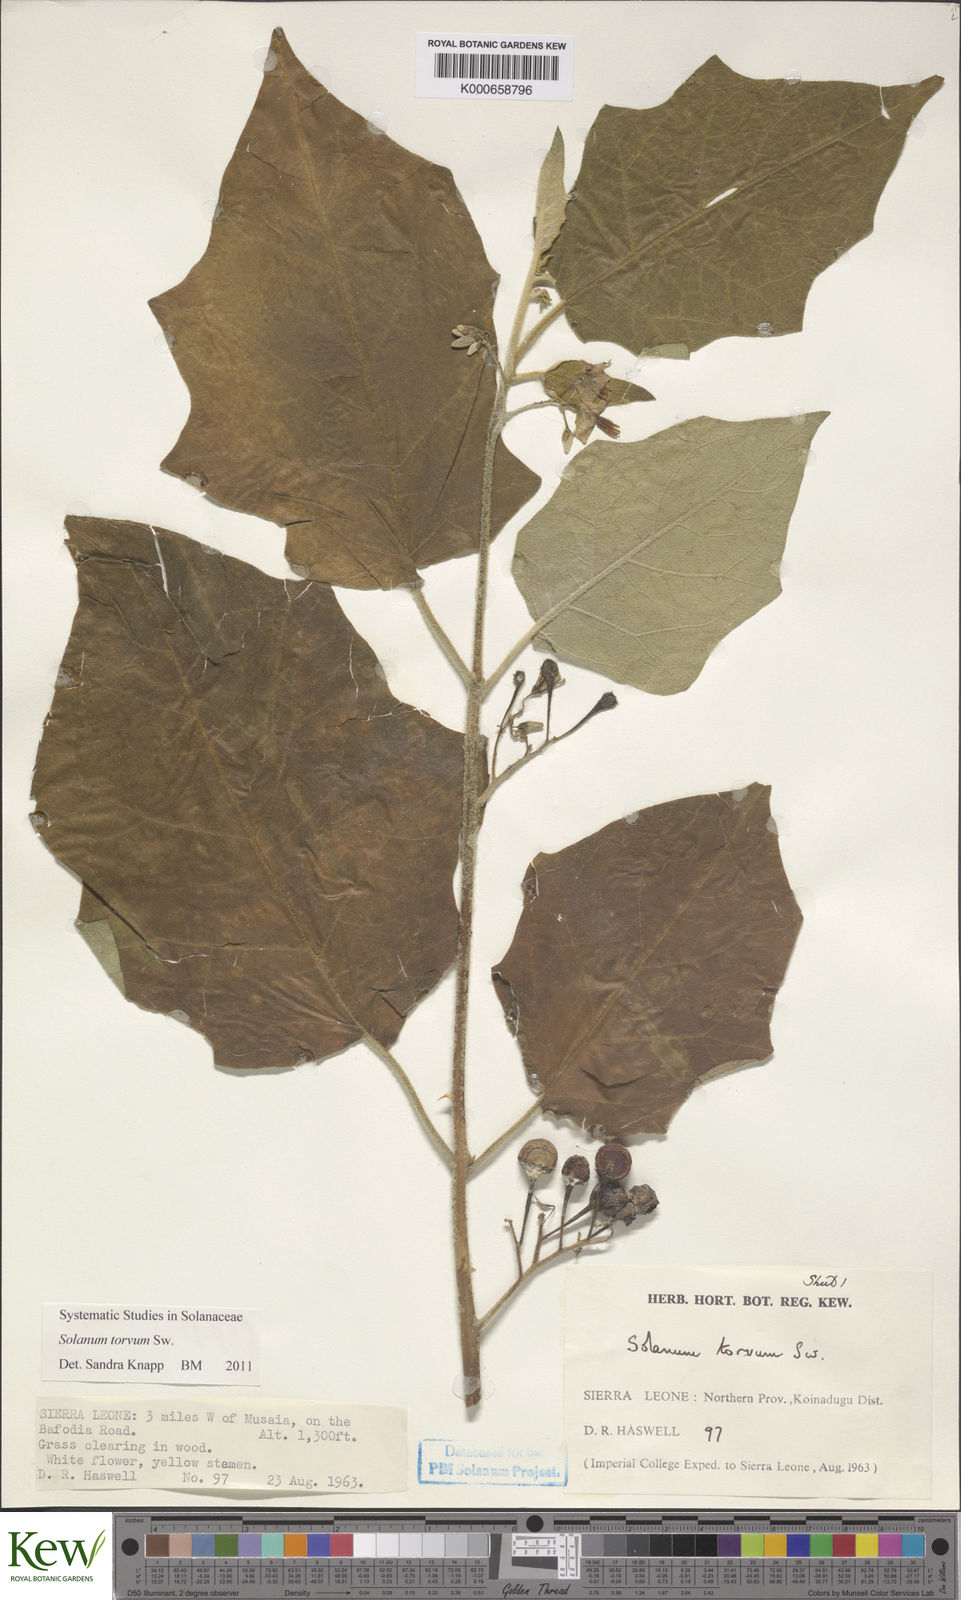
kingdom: Plantae
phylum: Tracheophyta
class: Magnoliopsida
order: Solanales
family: Solanaceae
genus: Solanum
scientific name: Solanum torvum
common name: Turkey berry
